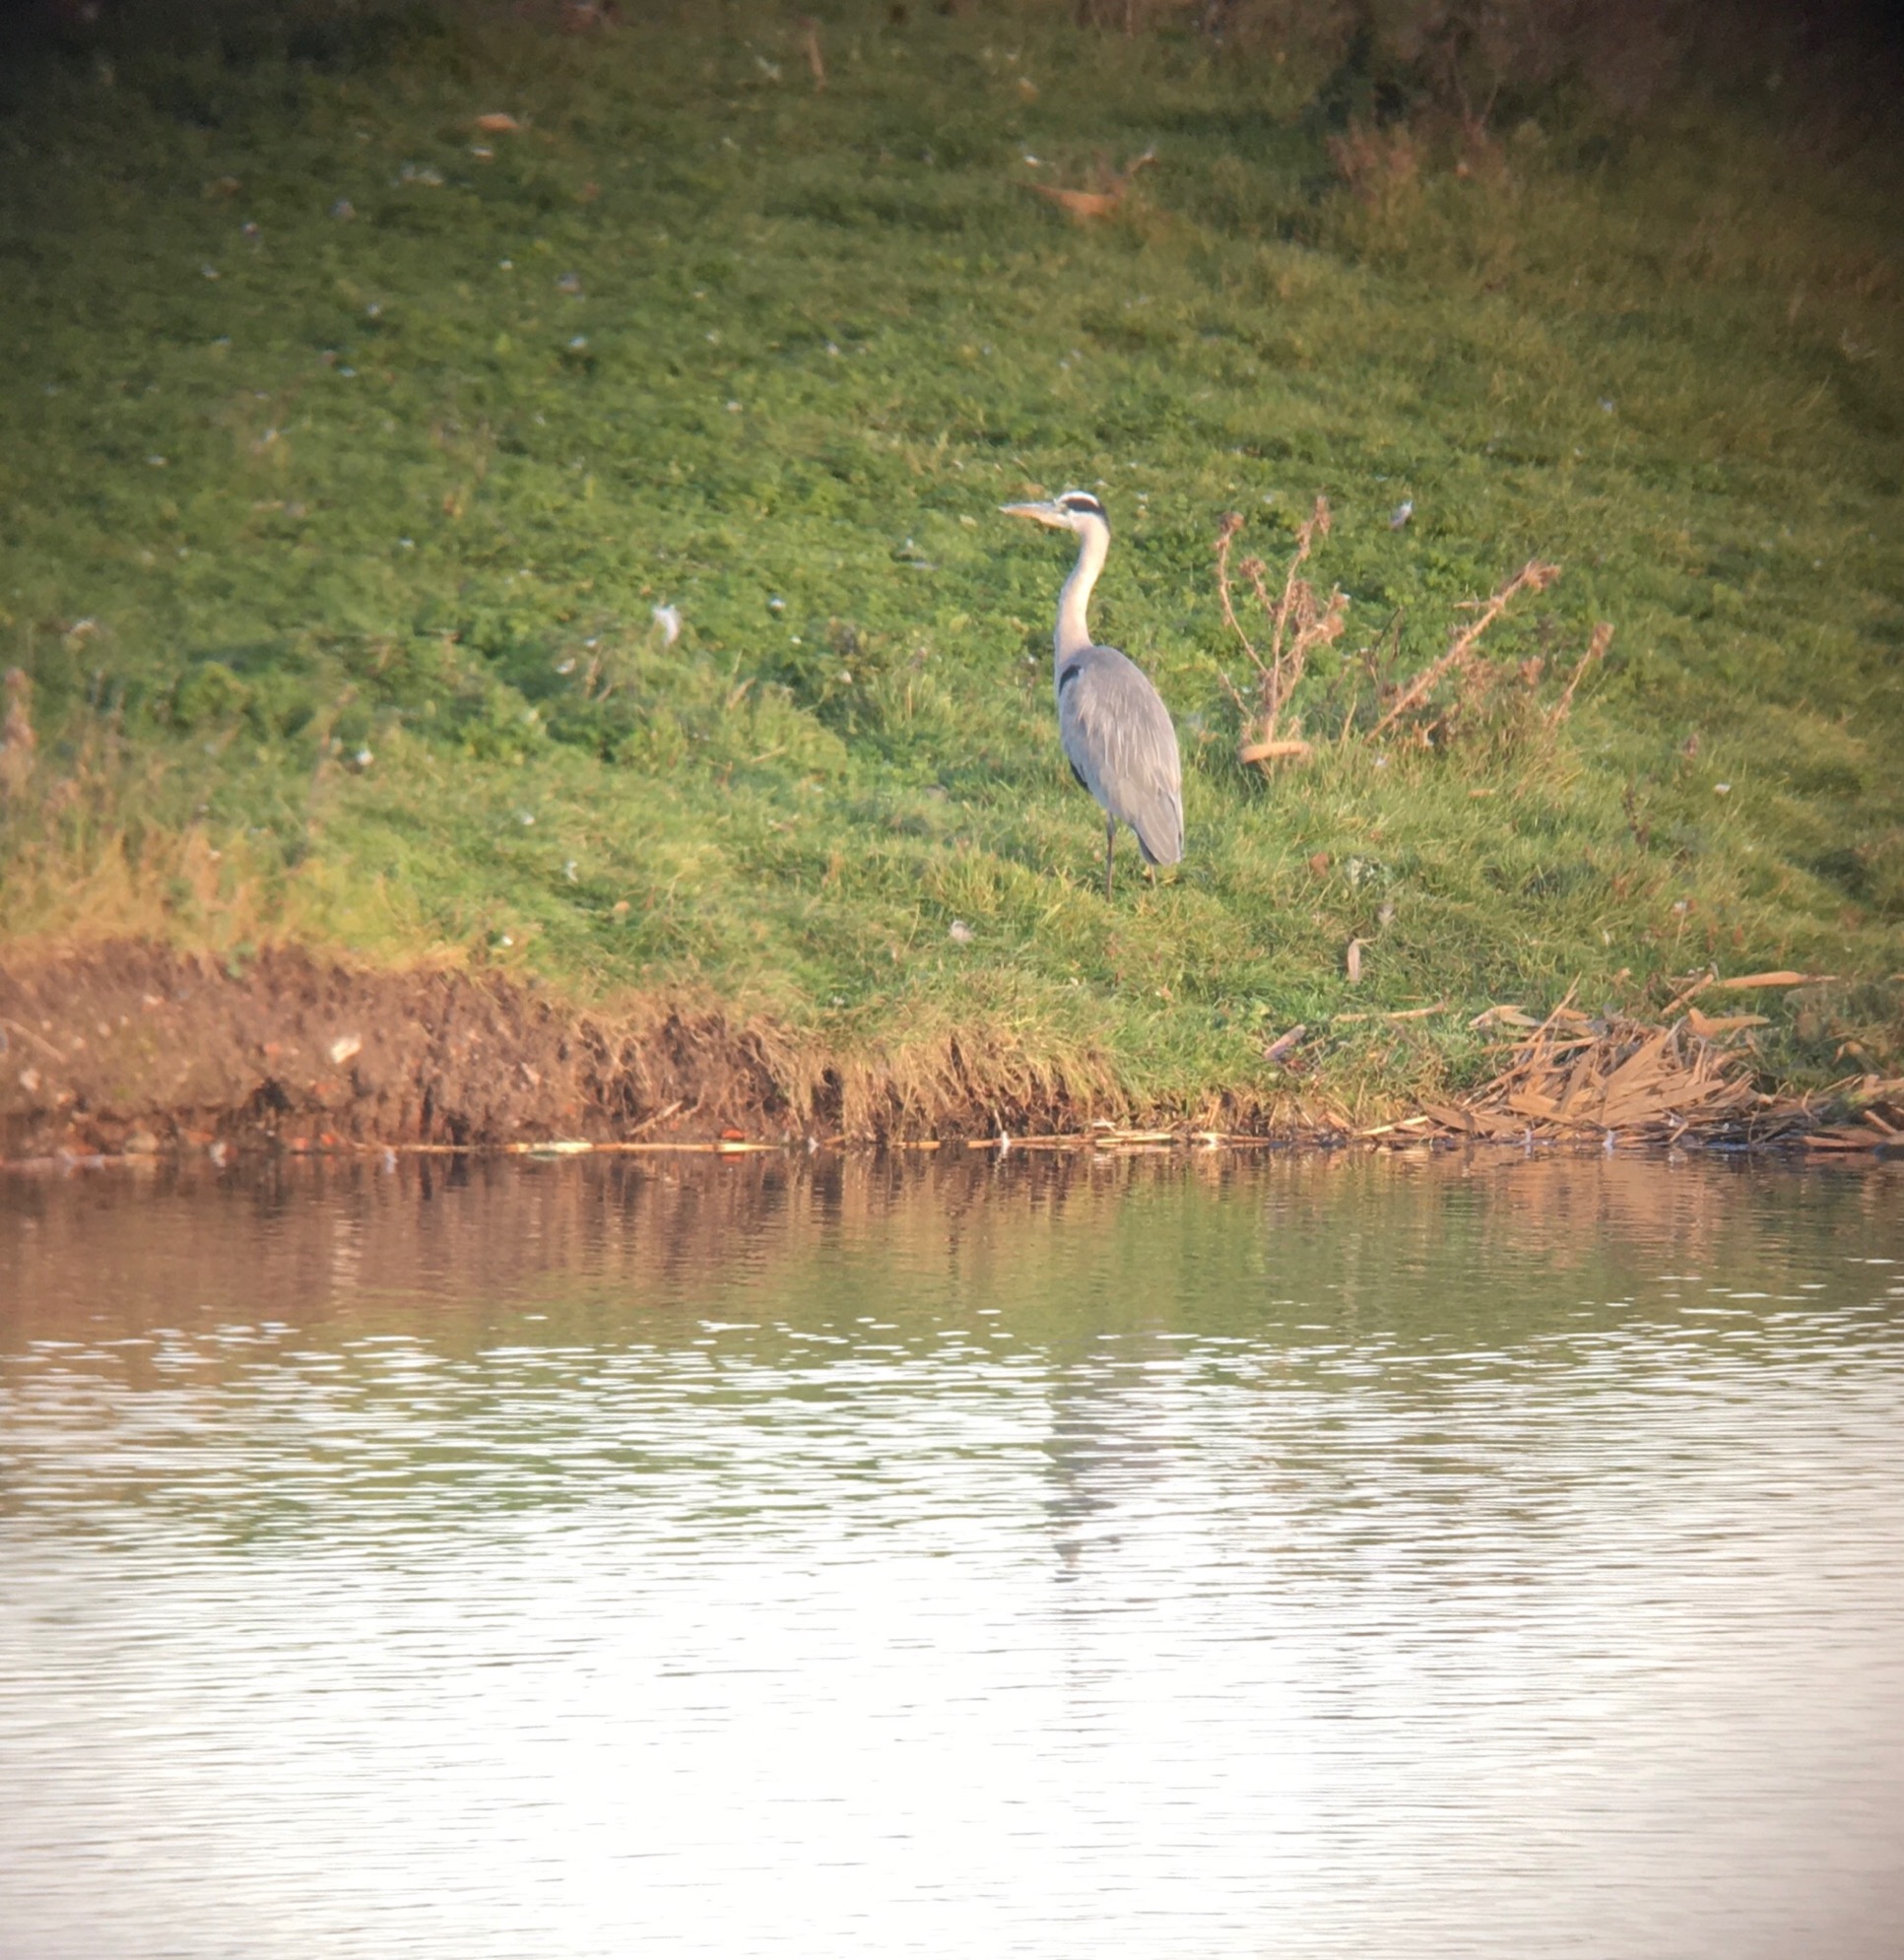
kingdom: Animalia
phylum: Chordata
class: Aves
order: Pelecaniformes
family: Ardeidae
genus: Ardea
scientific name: Ardea cinerea
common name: Fiskehejre
